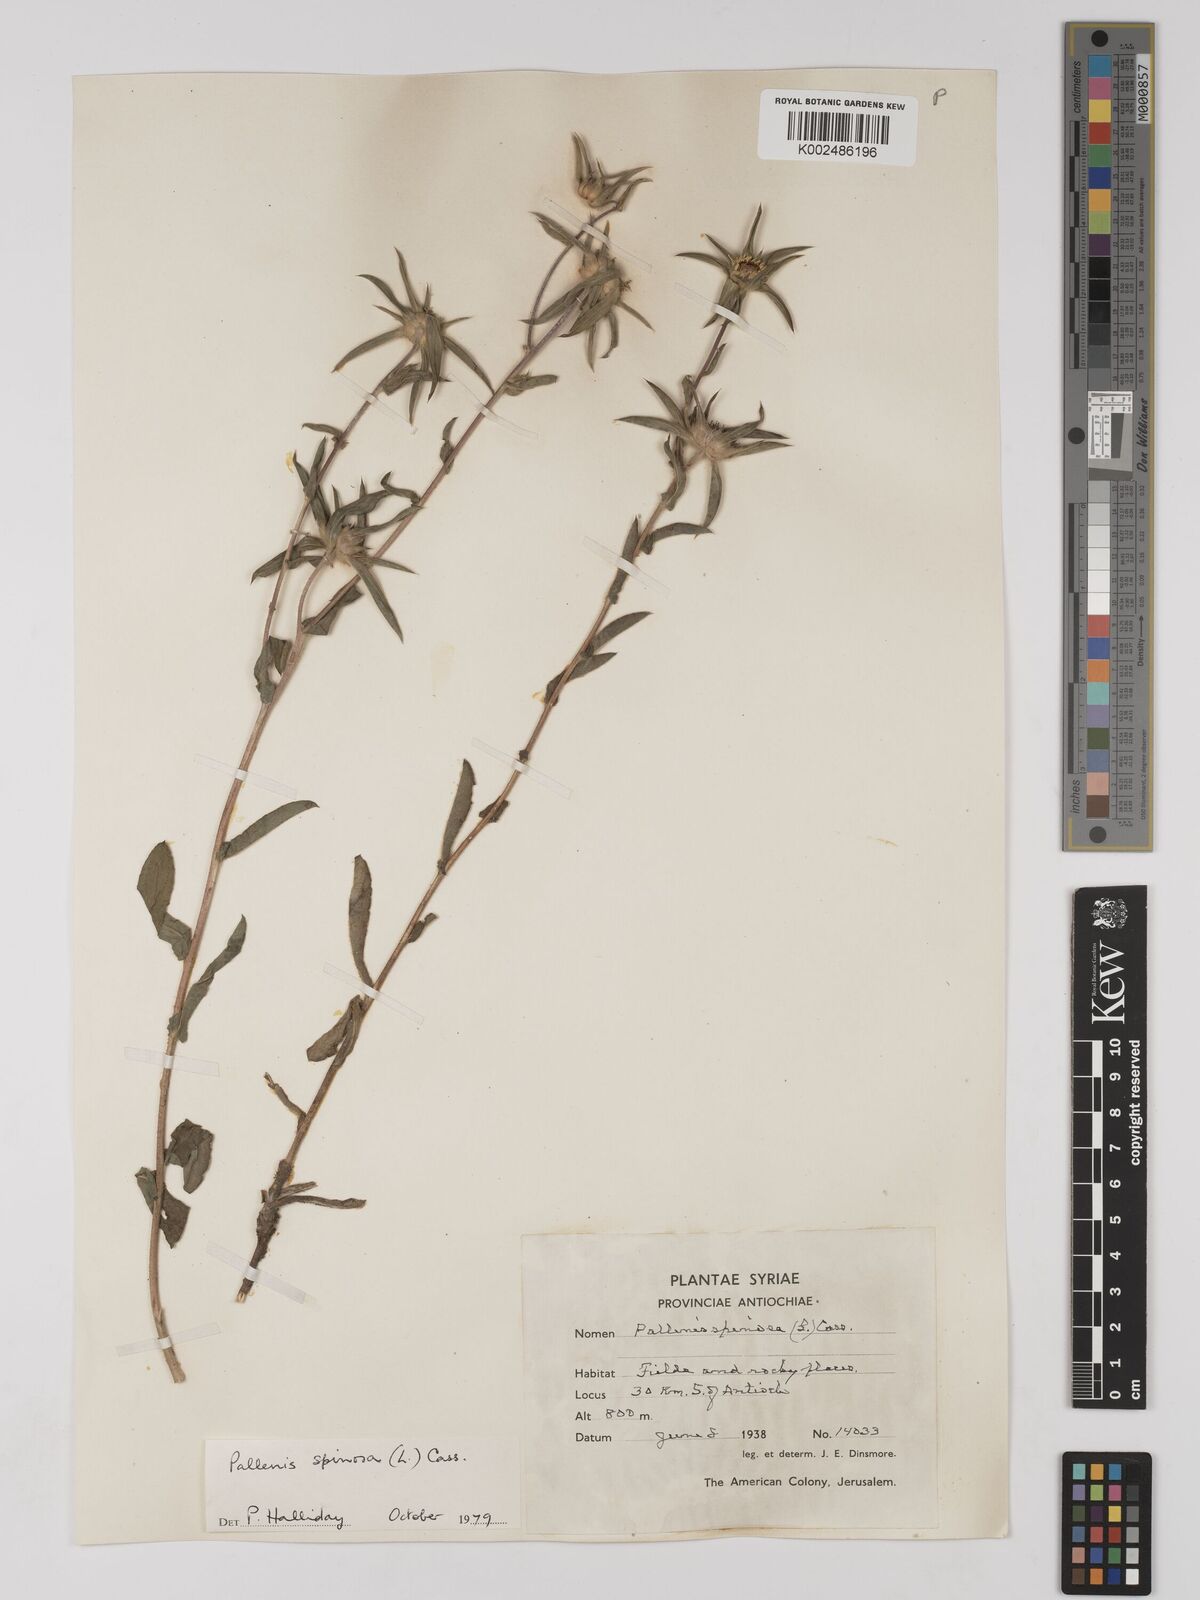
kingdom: Plantae
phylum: Tracheophyta
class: Magnoliopsida
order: Asterales
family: Asteraceae
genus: Pallenis
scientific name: Pallenis spinosa
